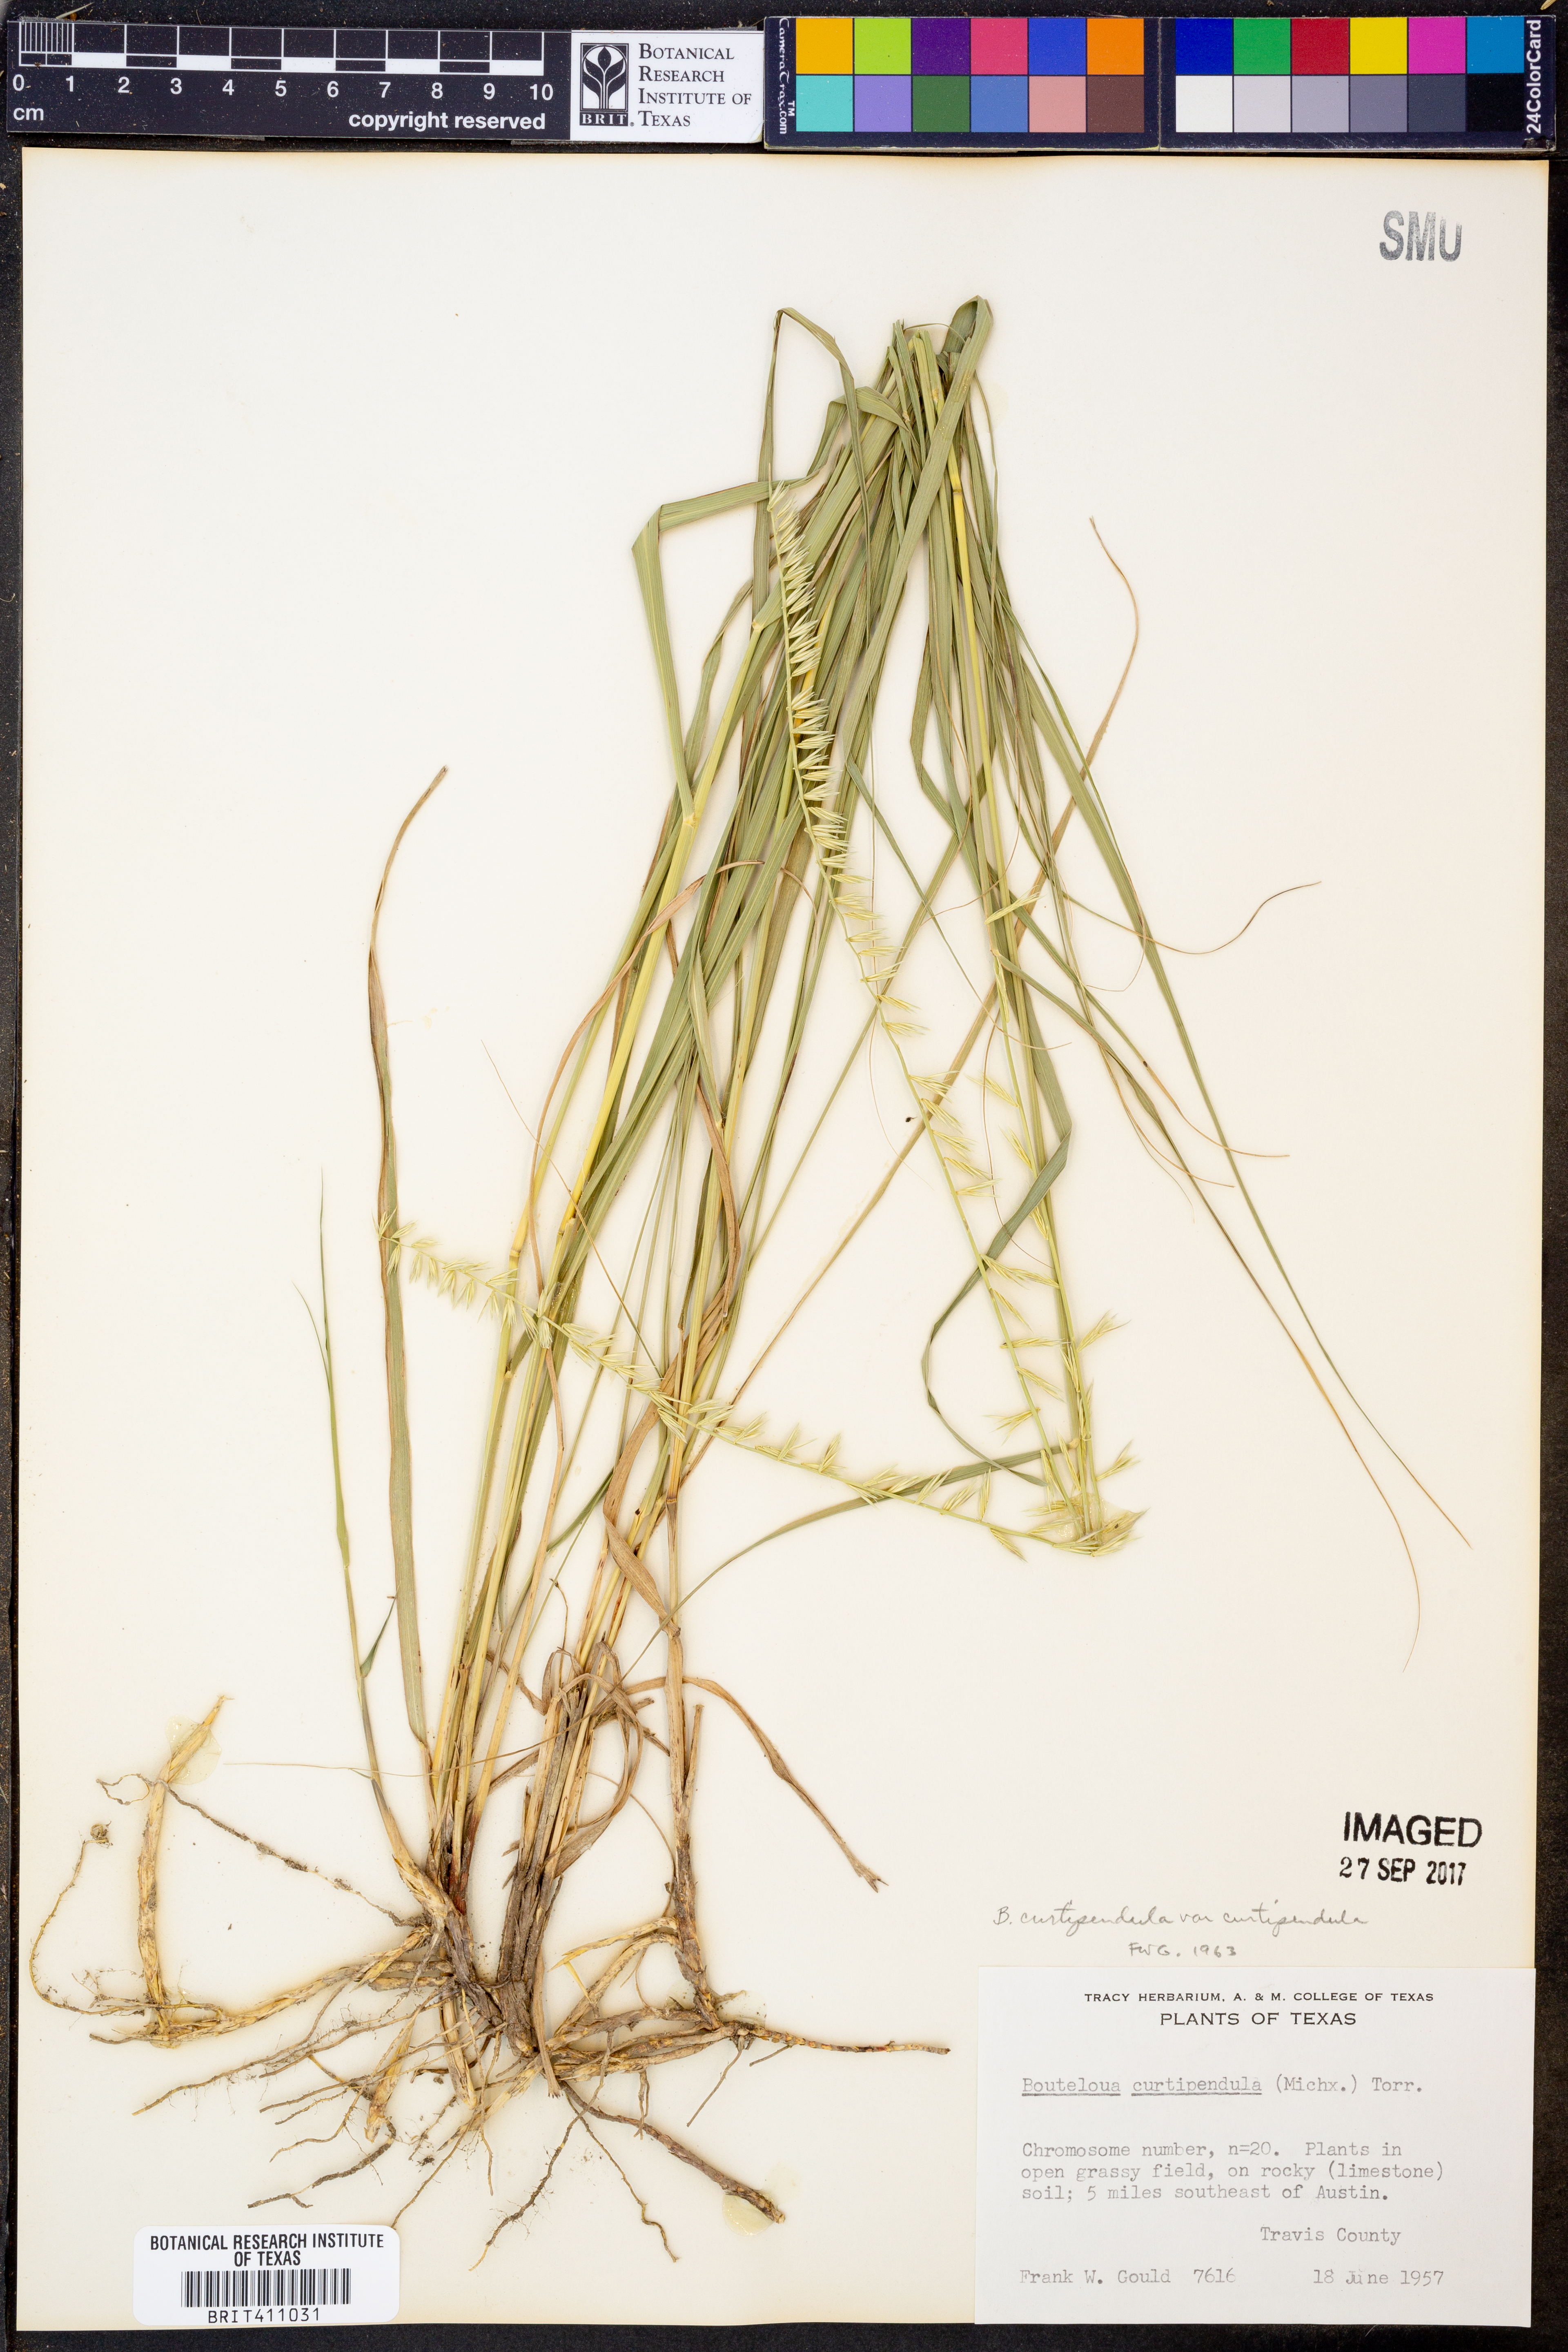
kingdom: Plantae
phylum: Tracheophyta
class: Liliopsida
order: Poales
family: Poaceae
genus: Bouteloua
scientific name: Bouteloua curtipendula
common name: Side-oats grama
